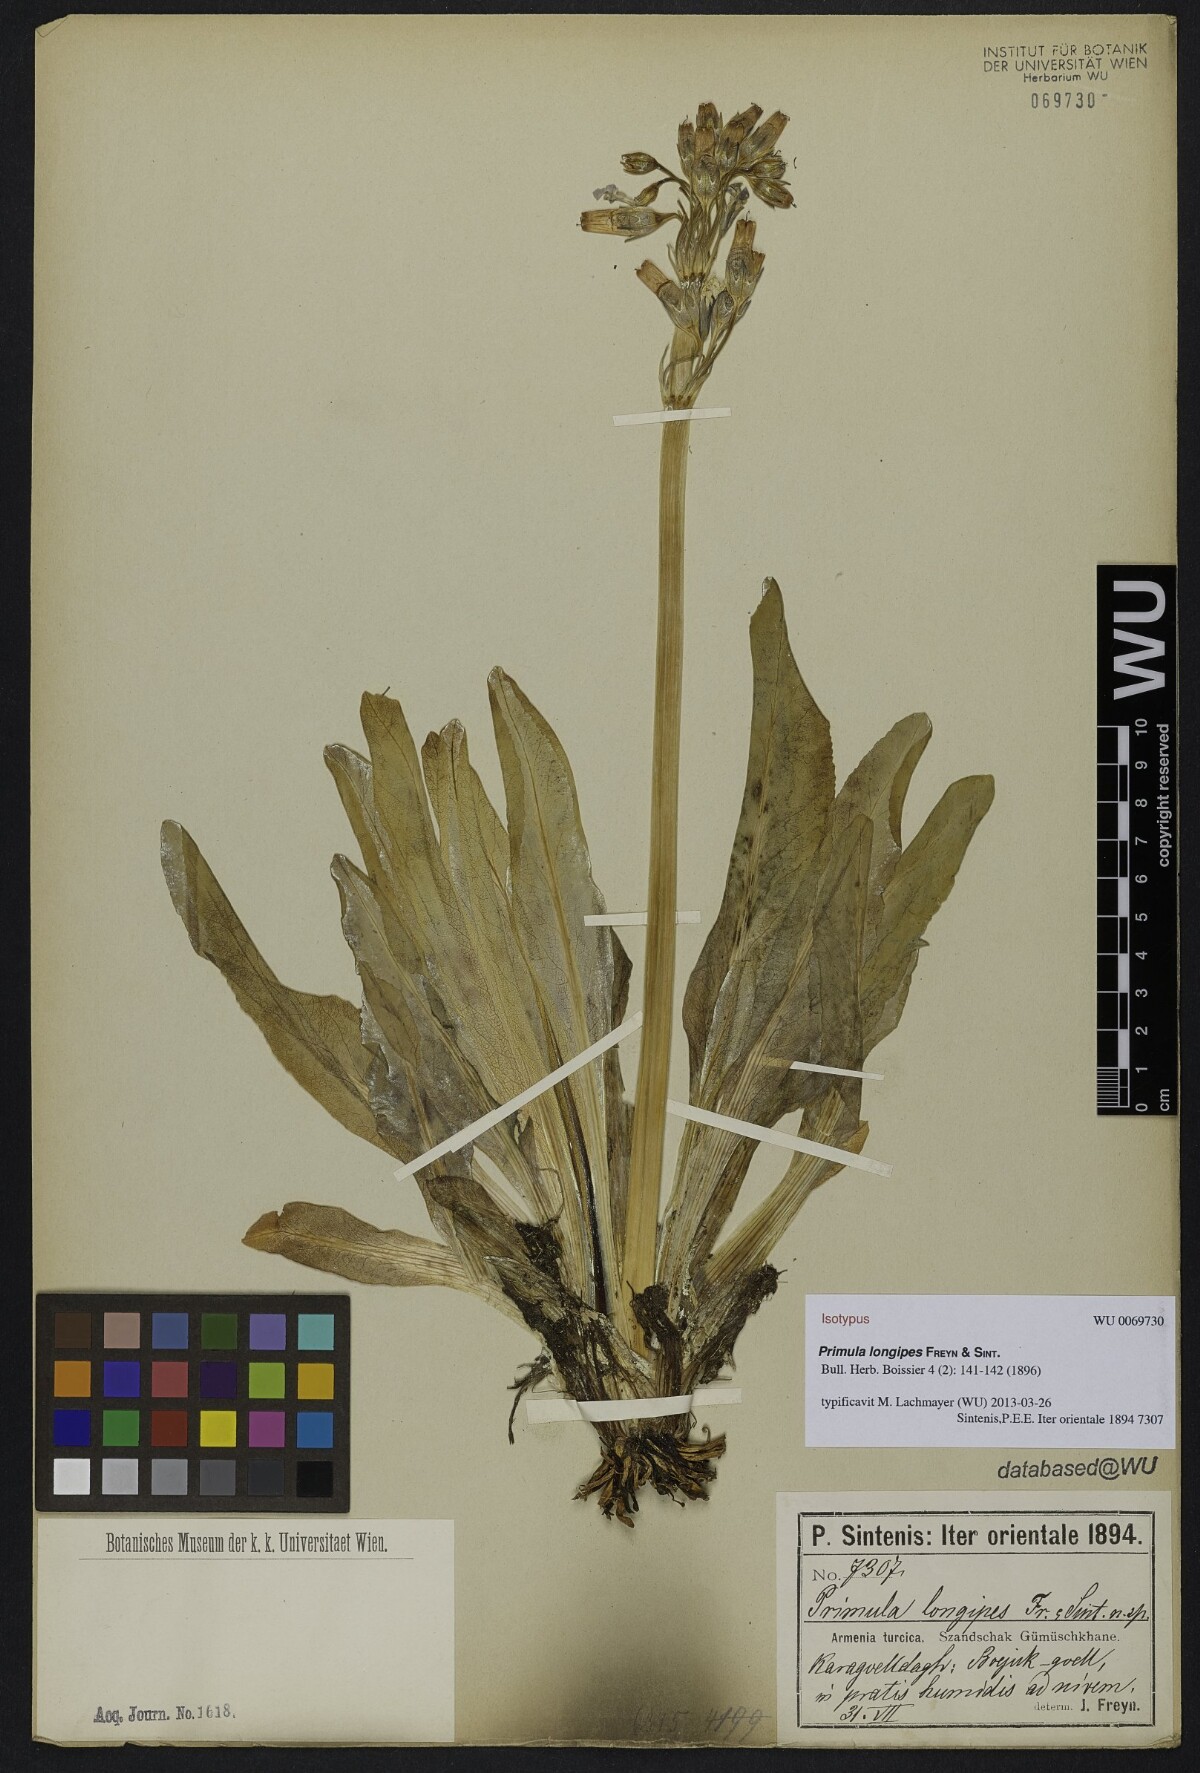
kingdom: Plantae
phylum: Tracheophyta
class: Magnoliopsida
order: Ericales
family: Primulaceae
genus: Primula
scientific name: Primula longipes
